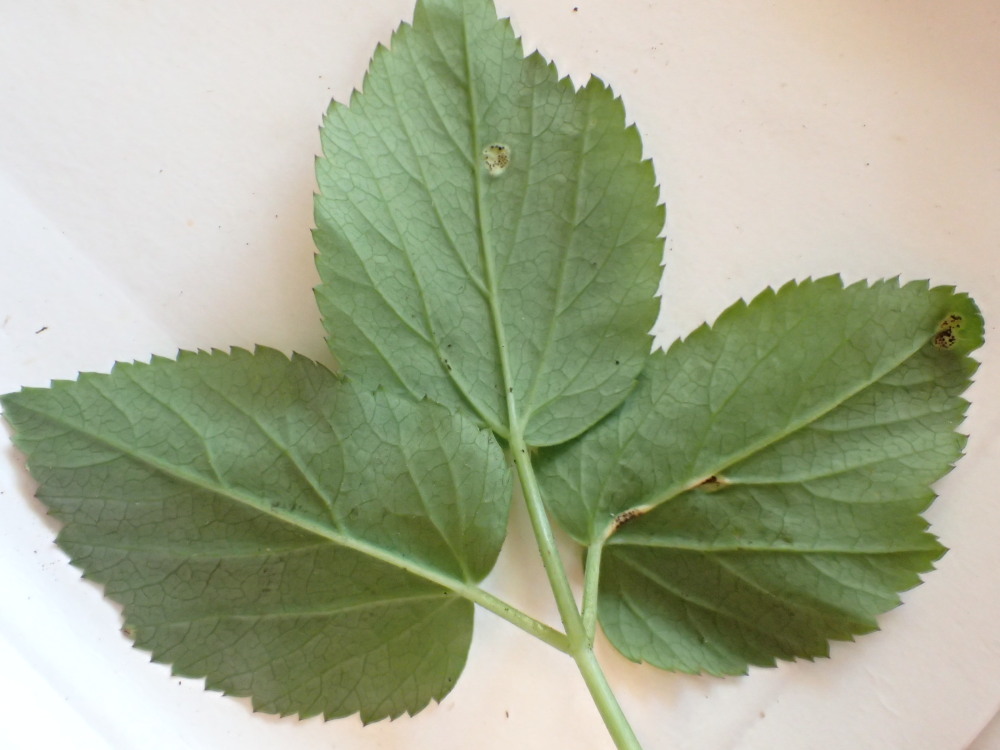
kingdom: Fungi
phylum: Basidiomycota
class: Pucciniomycetes
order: Pucciniales
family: Pucciniaceae
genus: Puccinia
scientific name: Puccinia
